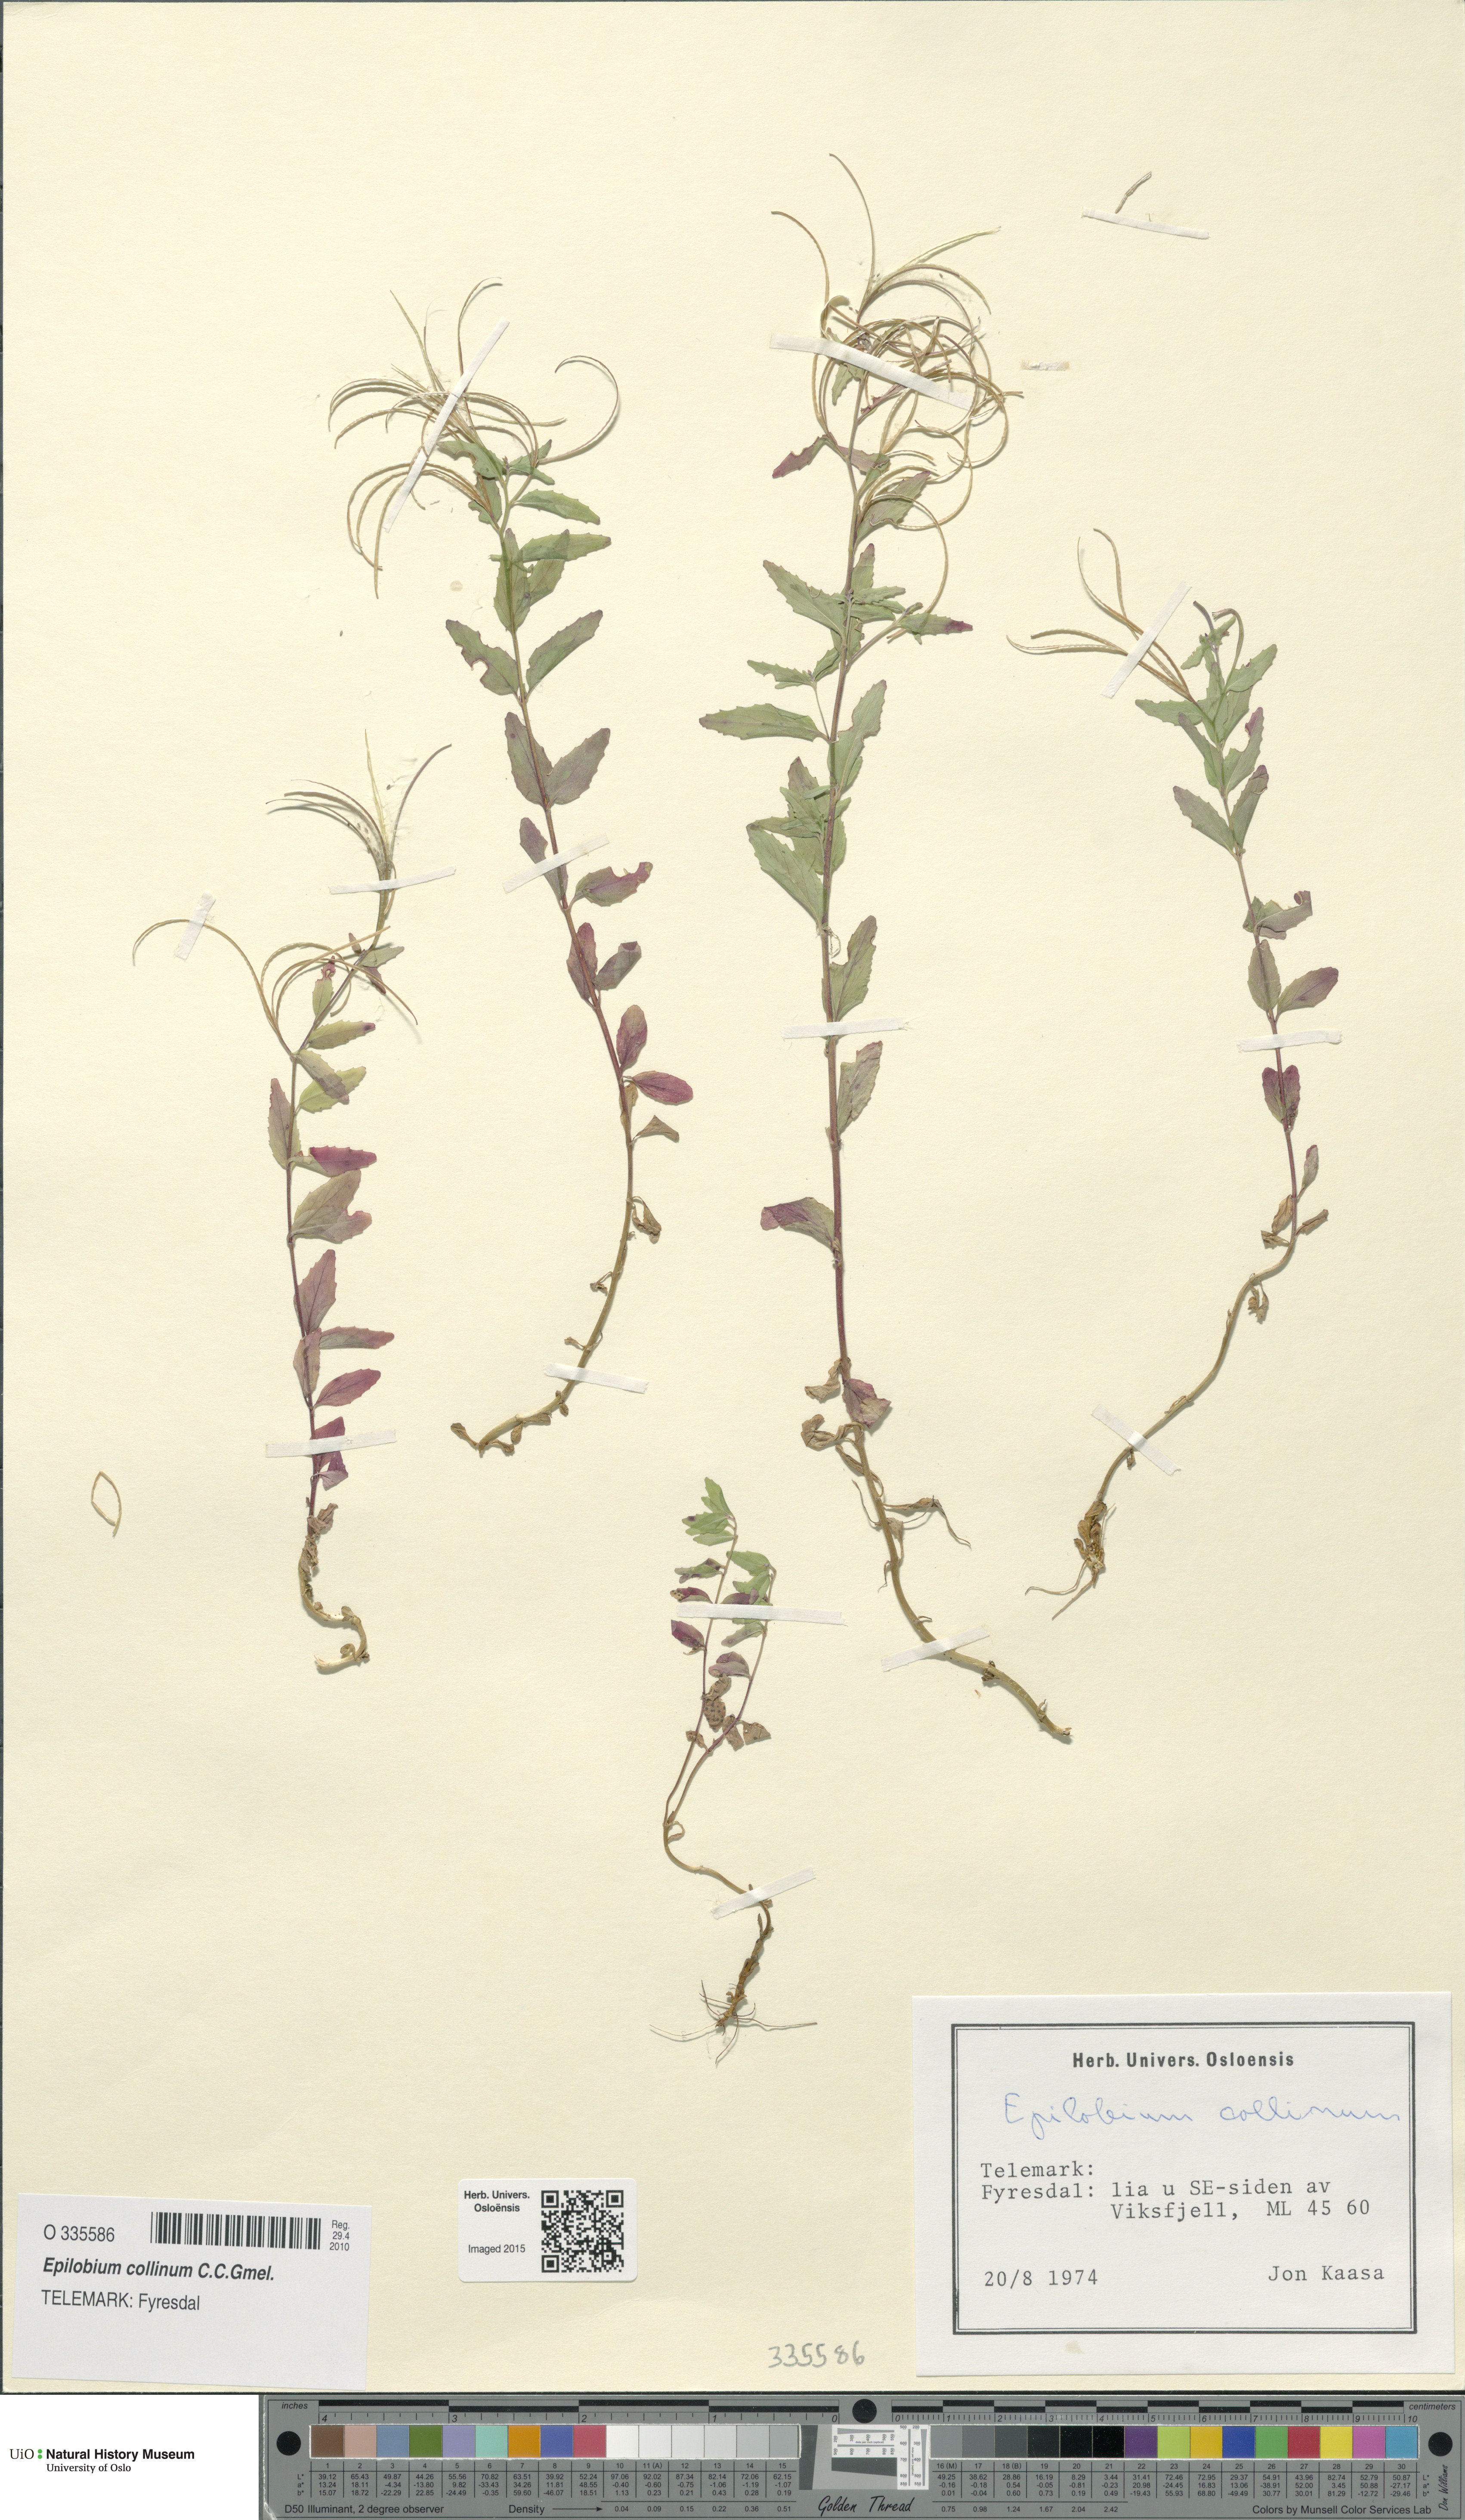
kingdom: Plantae
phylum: Tracheophyta
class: Magnoliopsida
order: Myrtales
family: Onagraceae
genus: Epilobium
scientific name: Epilobium collinum
